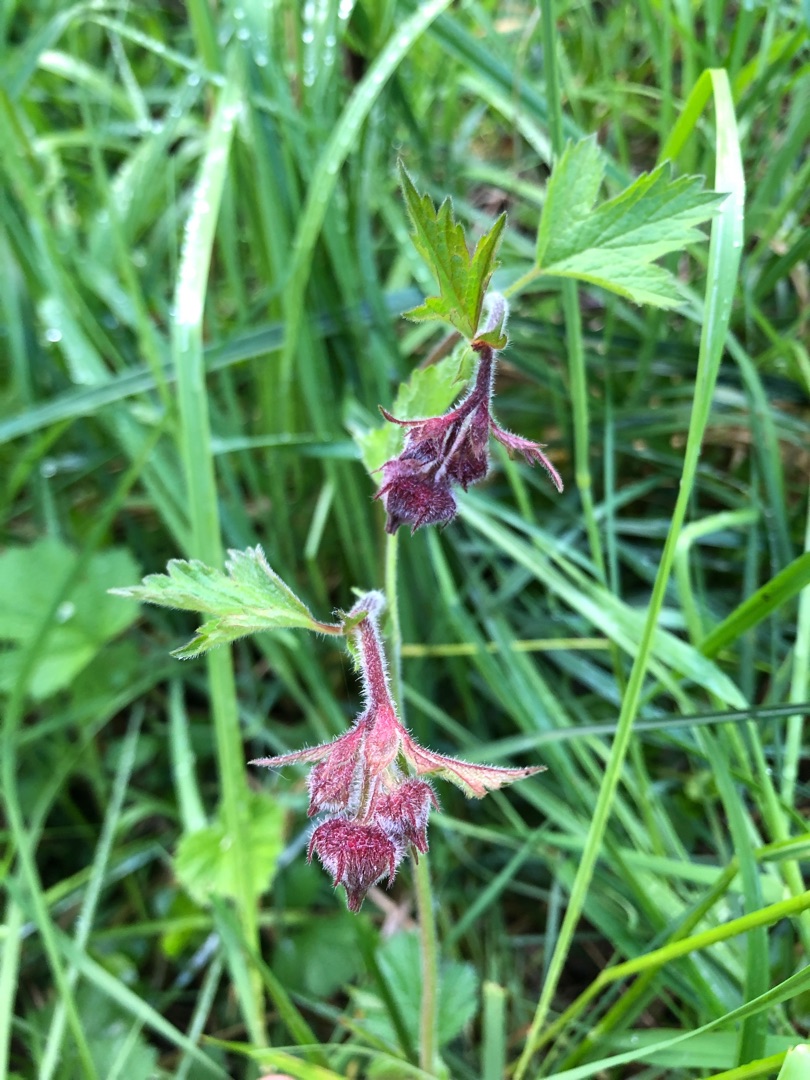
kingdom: Plantae
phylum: Tracheophyta
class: Magnoliopsida
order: Rosales
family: Rosaceae
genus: Geum
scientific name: Geum rivale
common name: Eng-nellikerod
